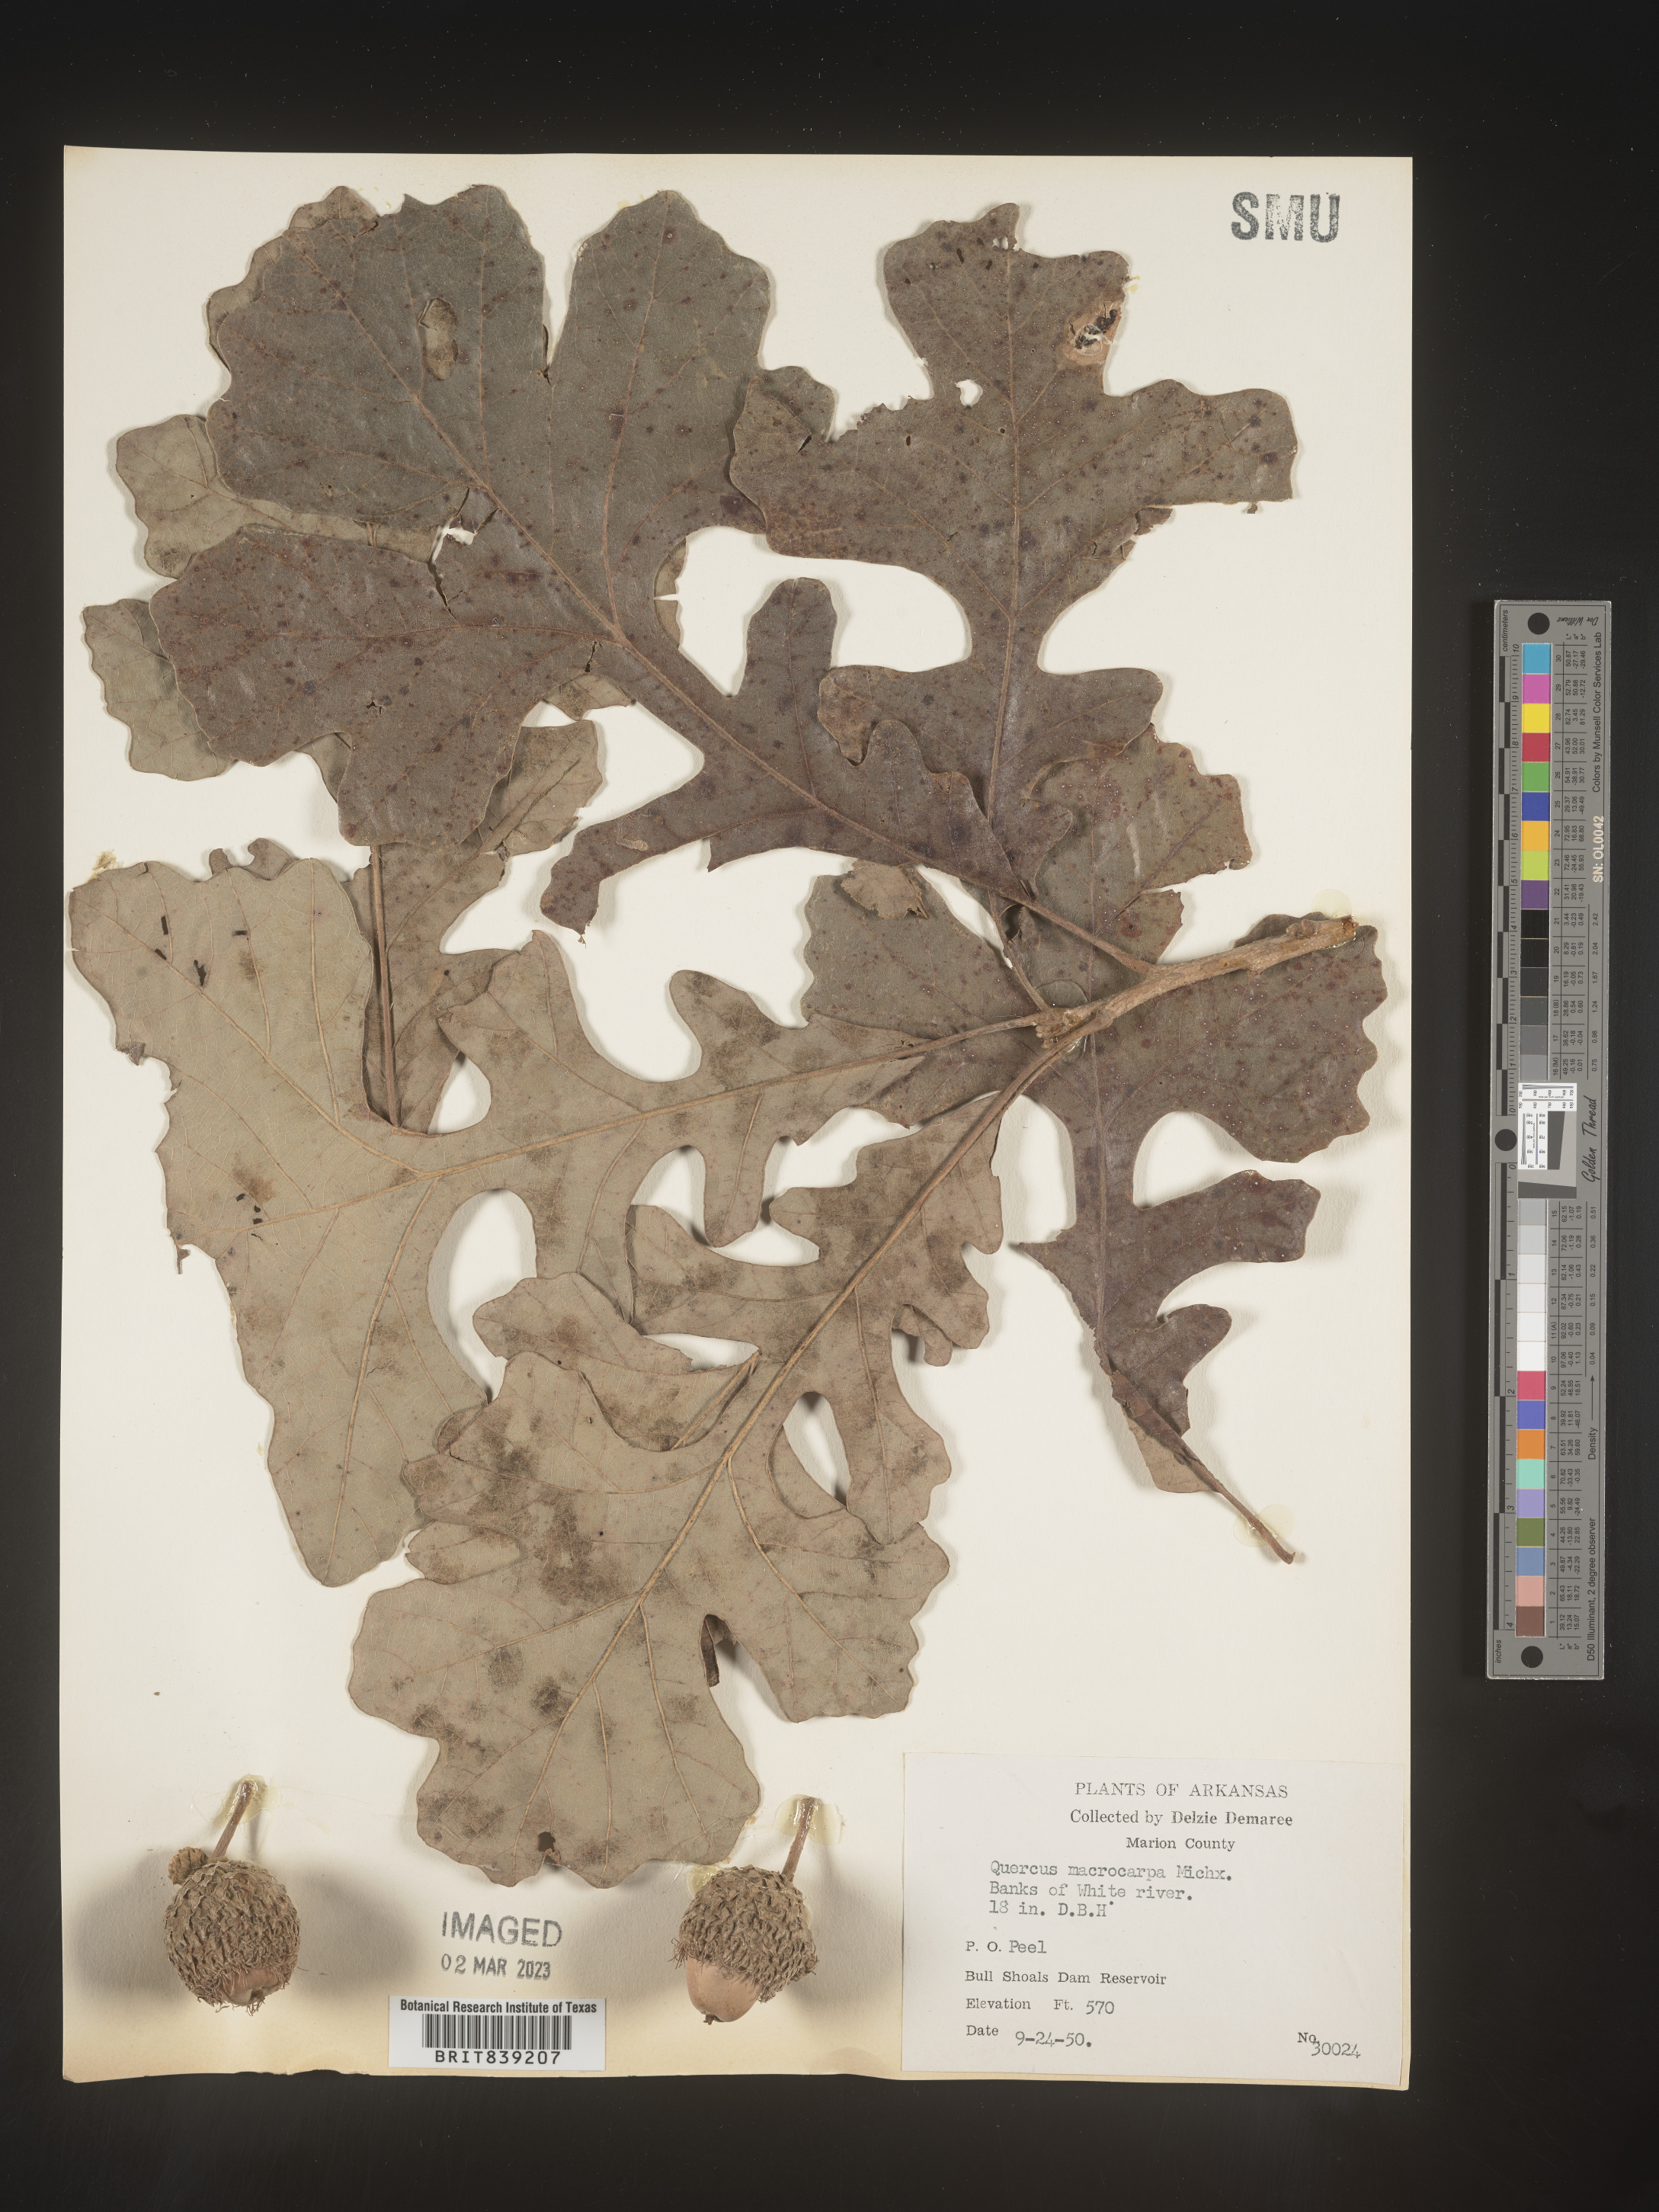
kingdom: Plantae
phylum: Tracheophyta
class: Magnoliopsida
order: Fagales
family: Fagaceae
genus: Quercus
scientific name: Quercus macrocarpa
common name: Bur oak
